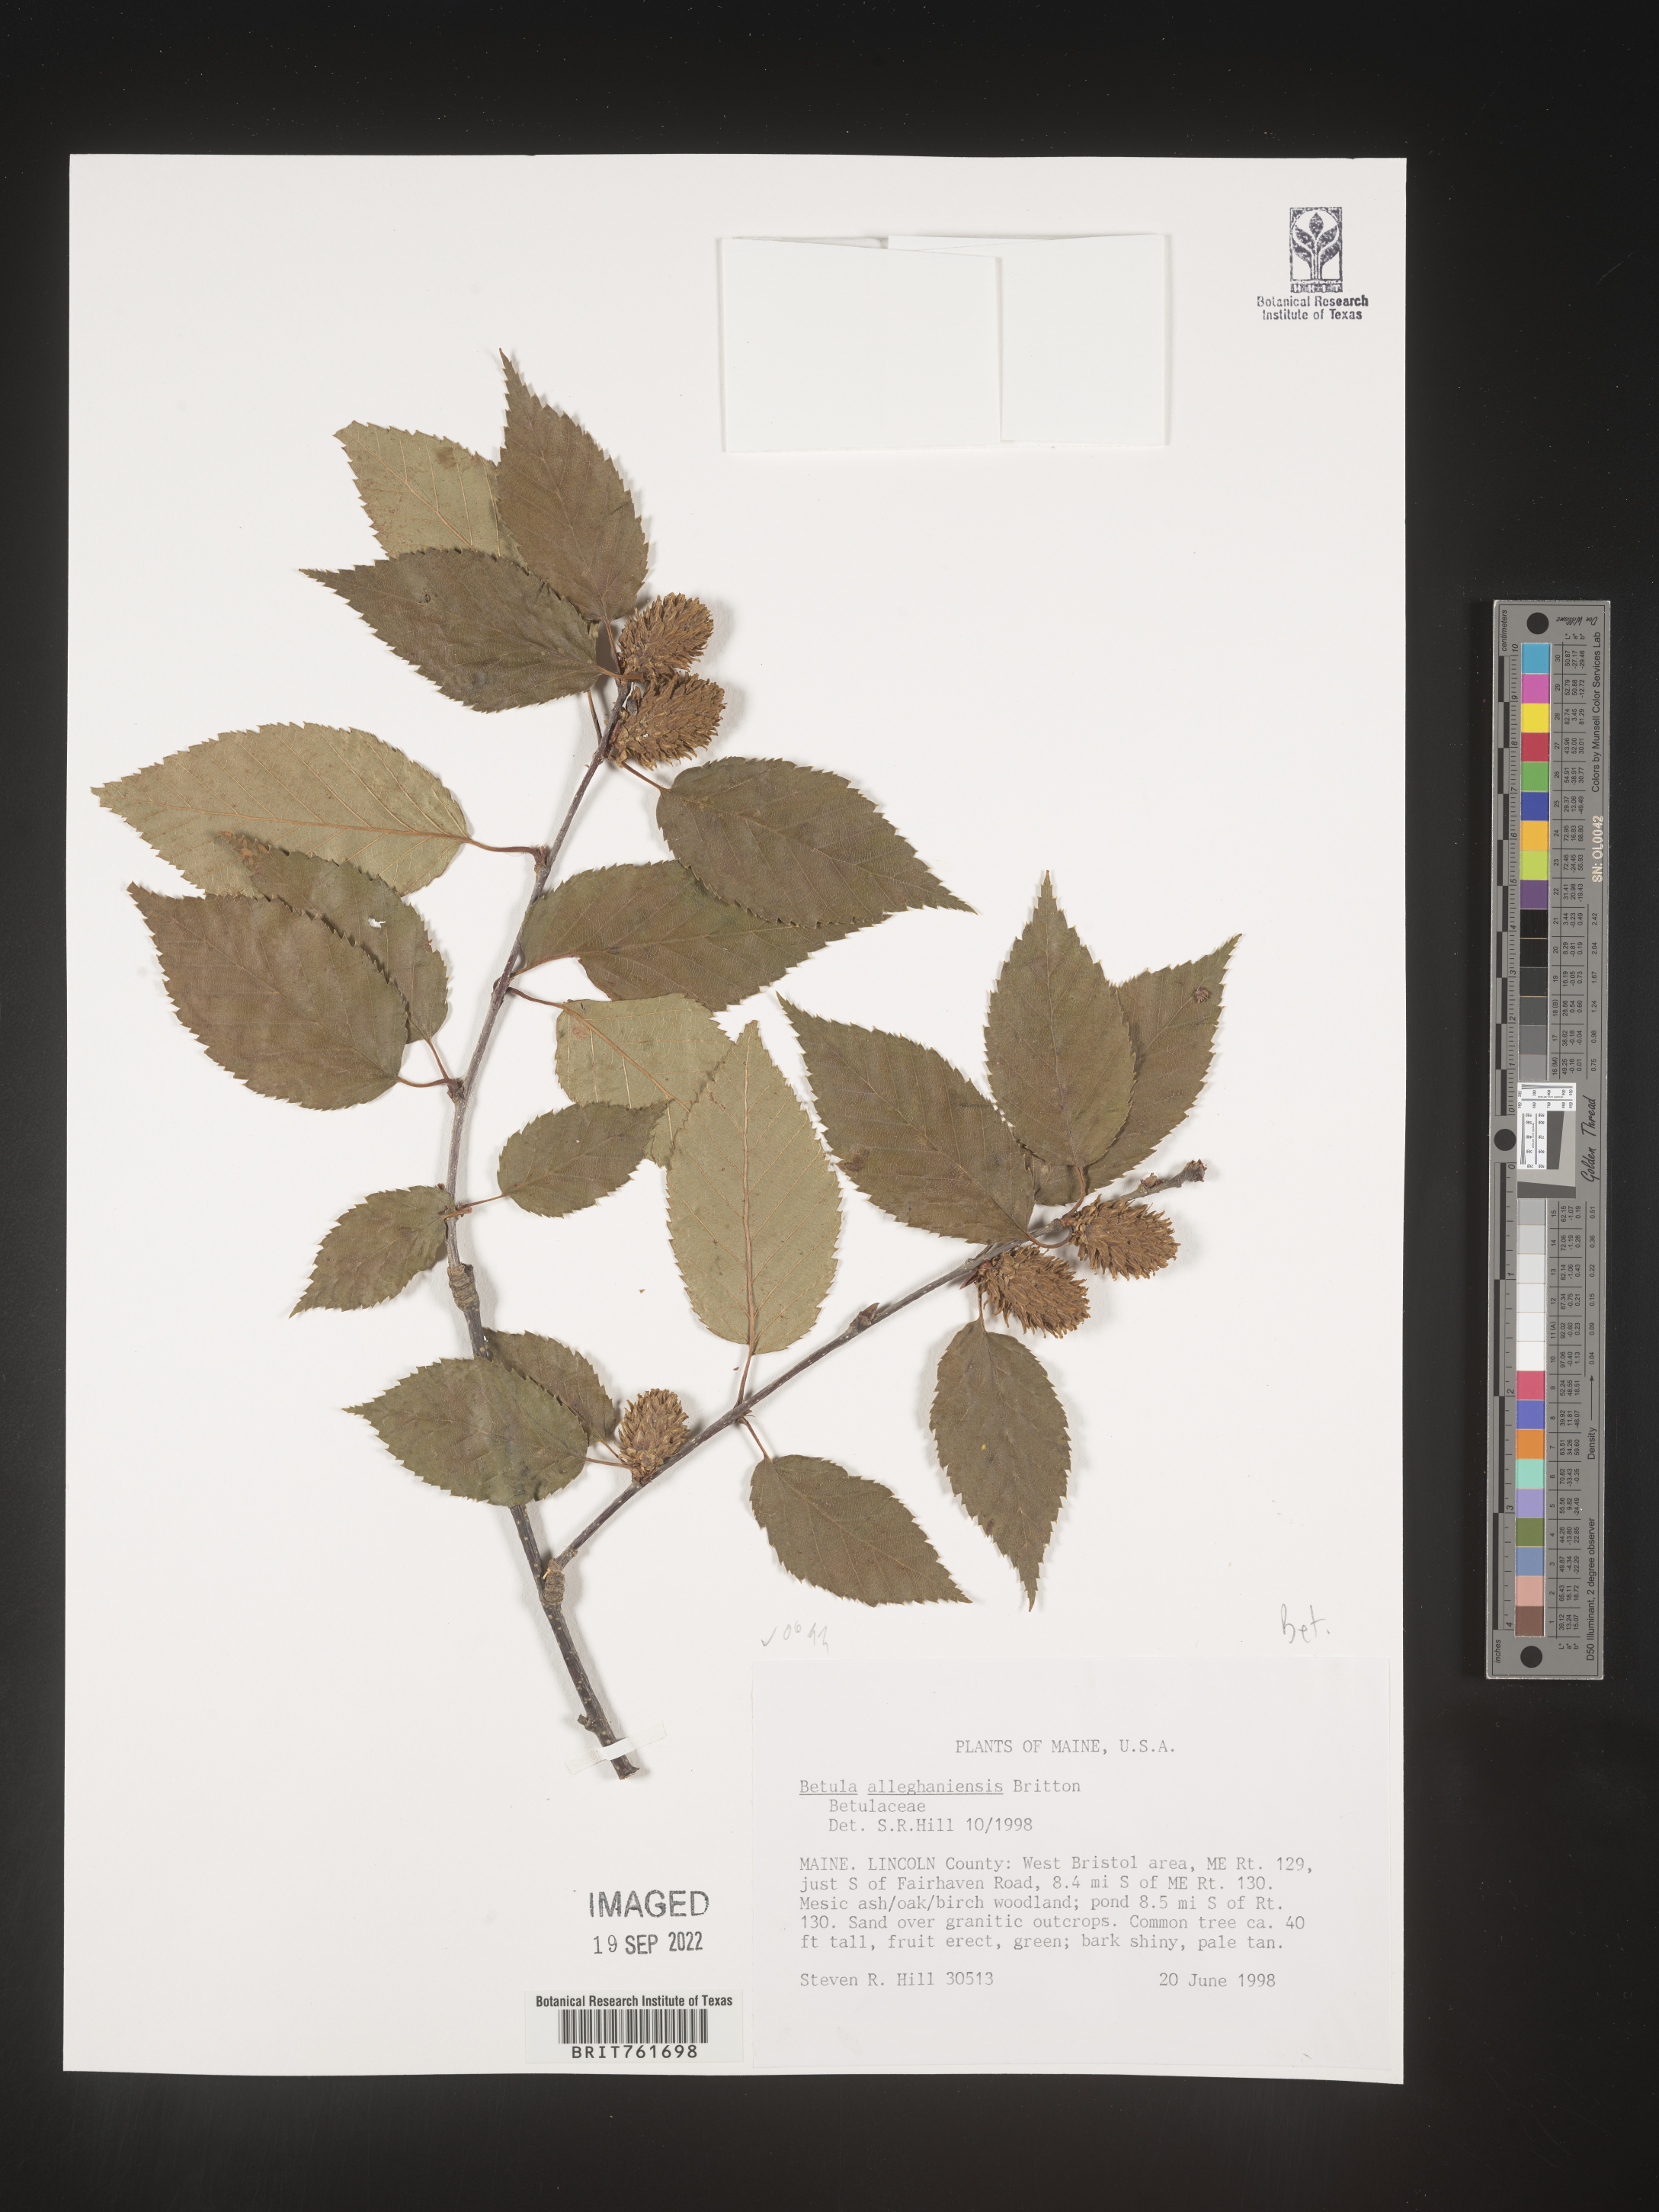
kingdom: Plantae
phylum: Tracheophyta
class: Magnoliopsida
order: Fagales
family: Betulaceae
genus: Betula
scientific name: Betula alleghaniensis
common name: Yellow birch
